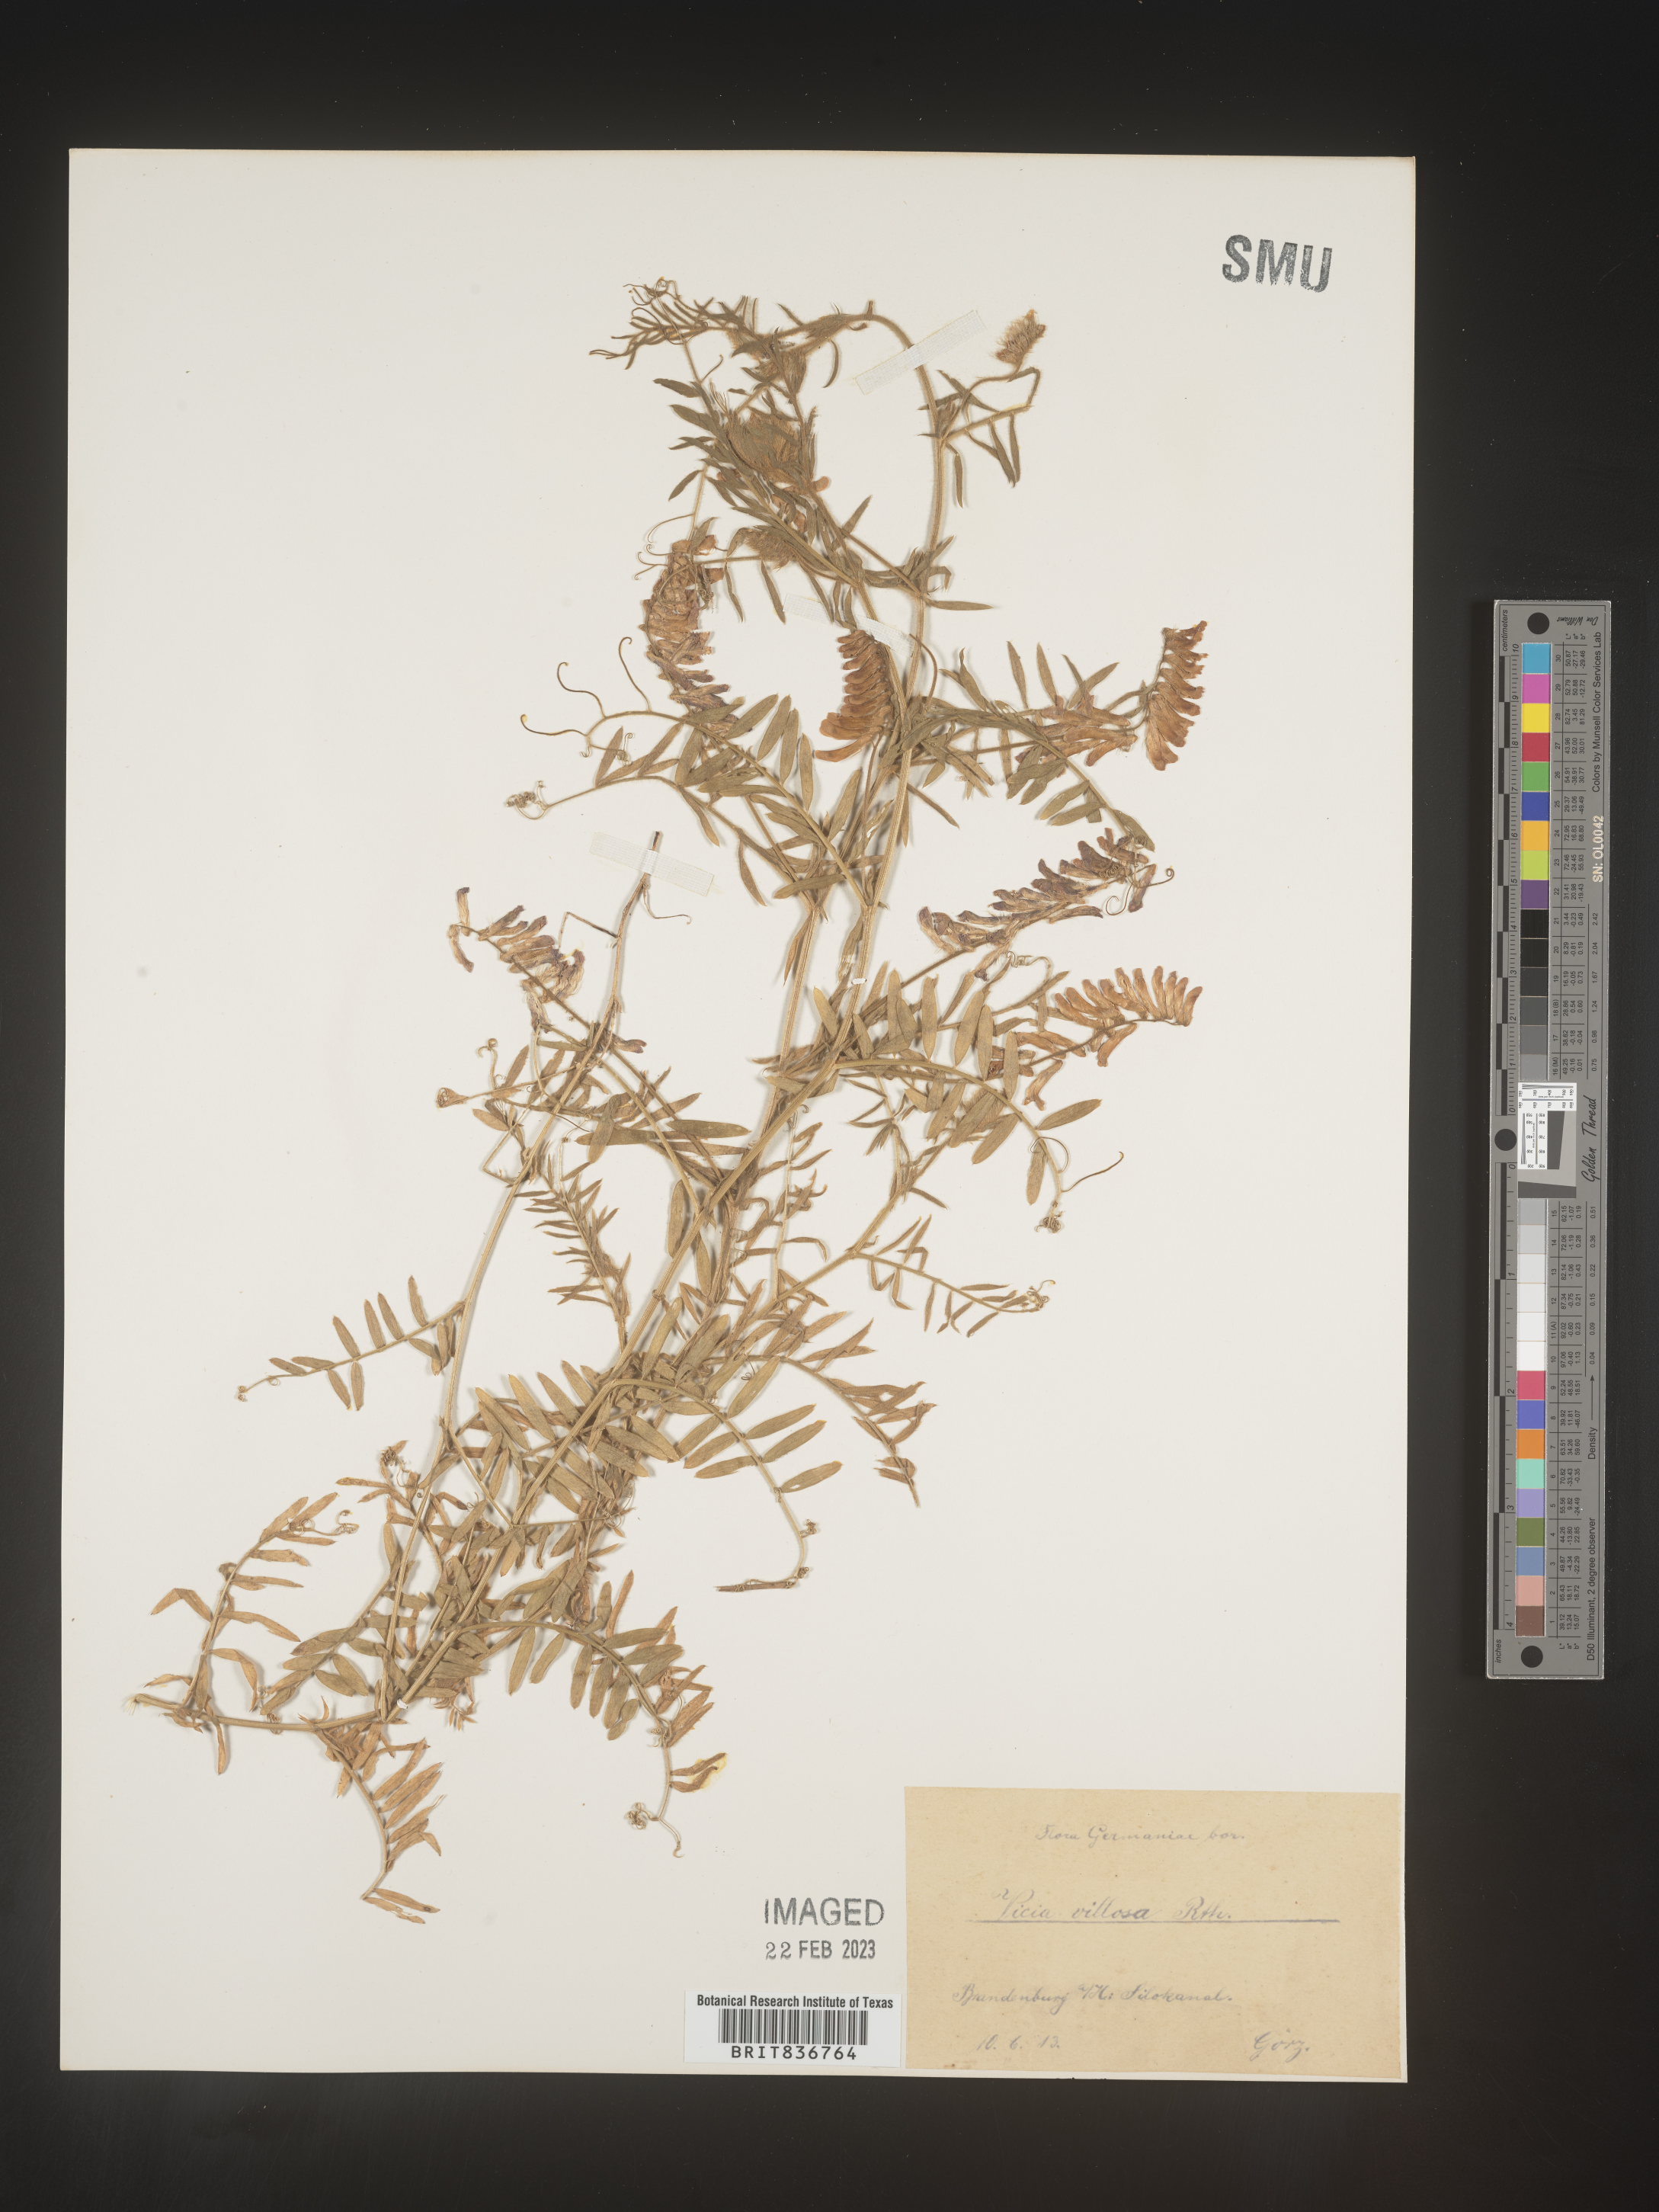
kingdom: Plantae
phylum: Tracheophyta
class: Magnoliopsida
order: Fabales
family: Fabaceae
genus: Vicia
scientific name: Vicia
